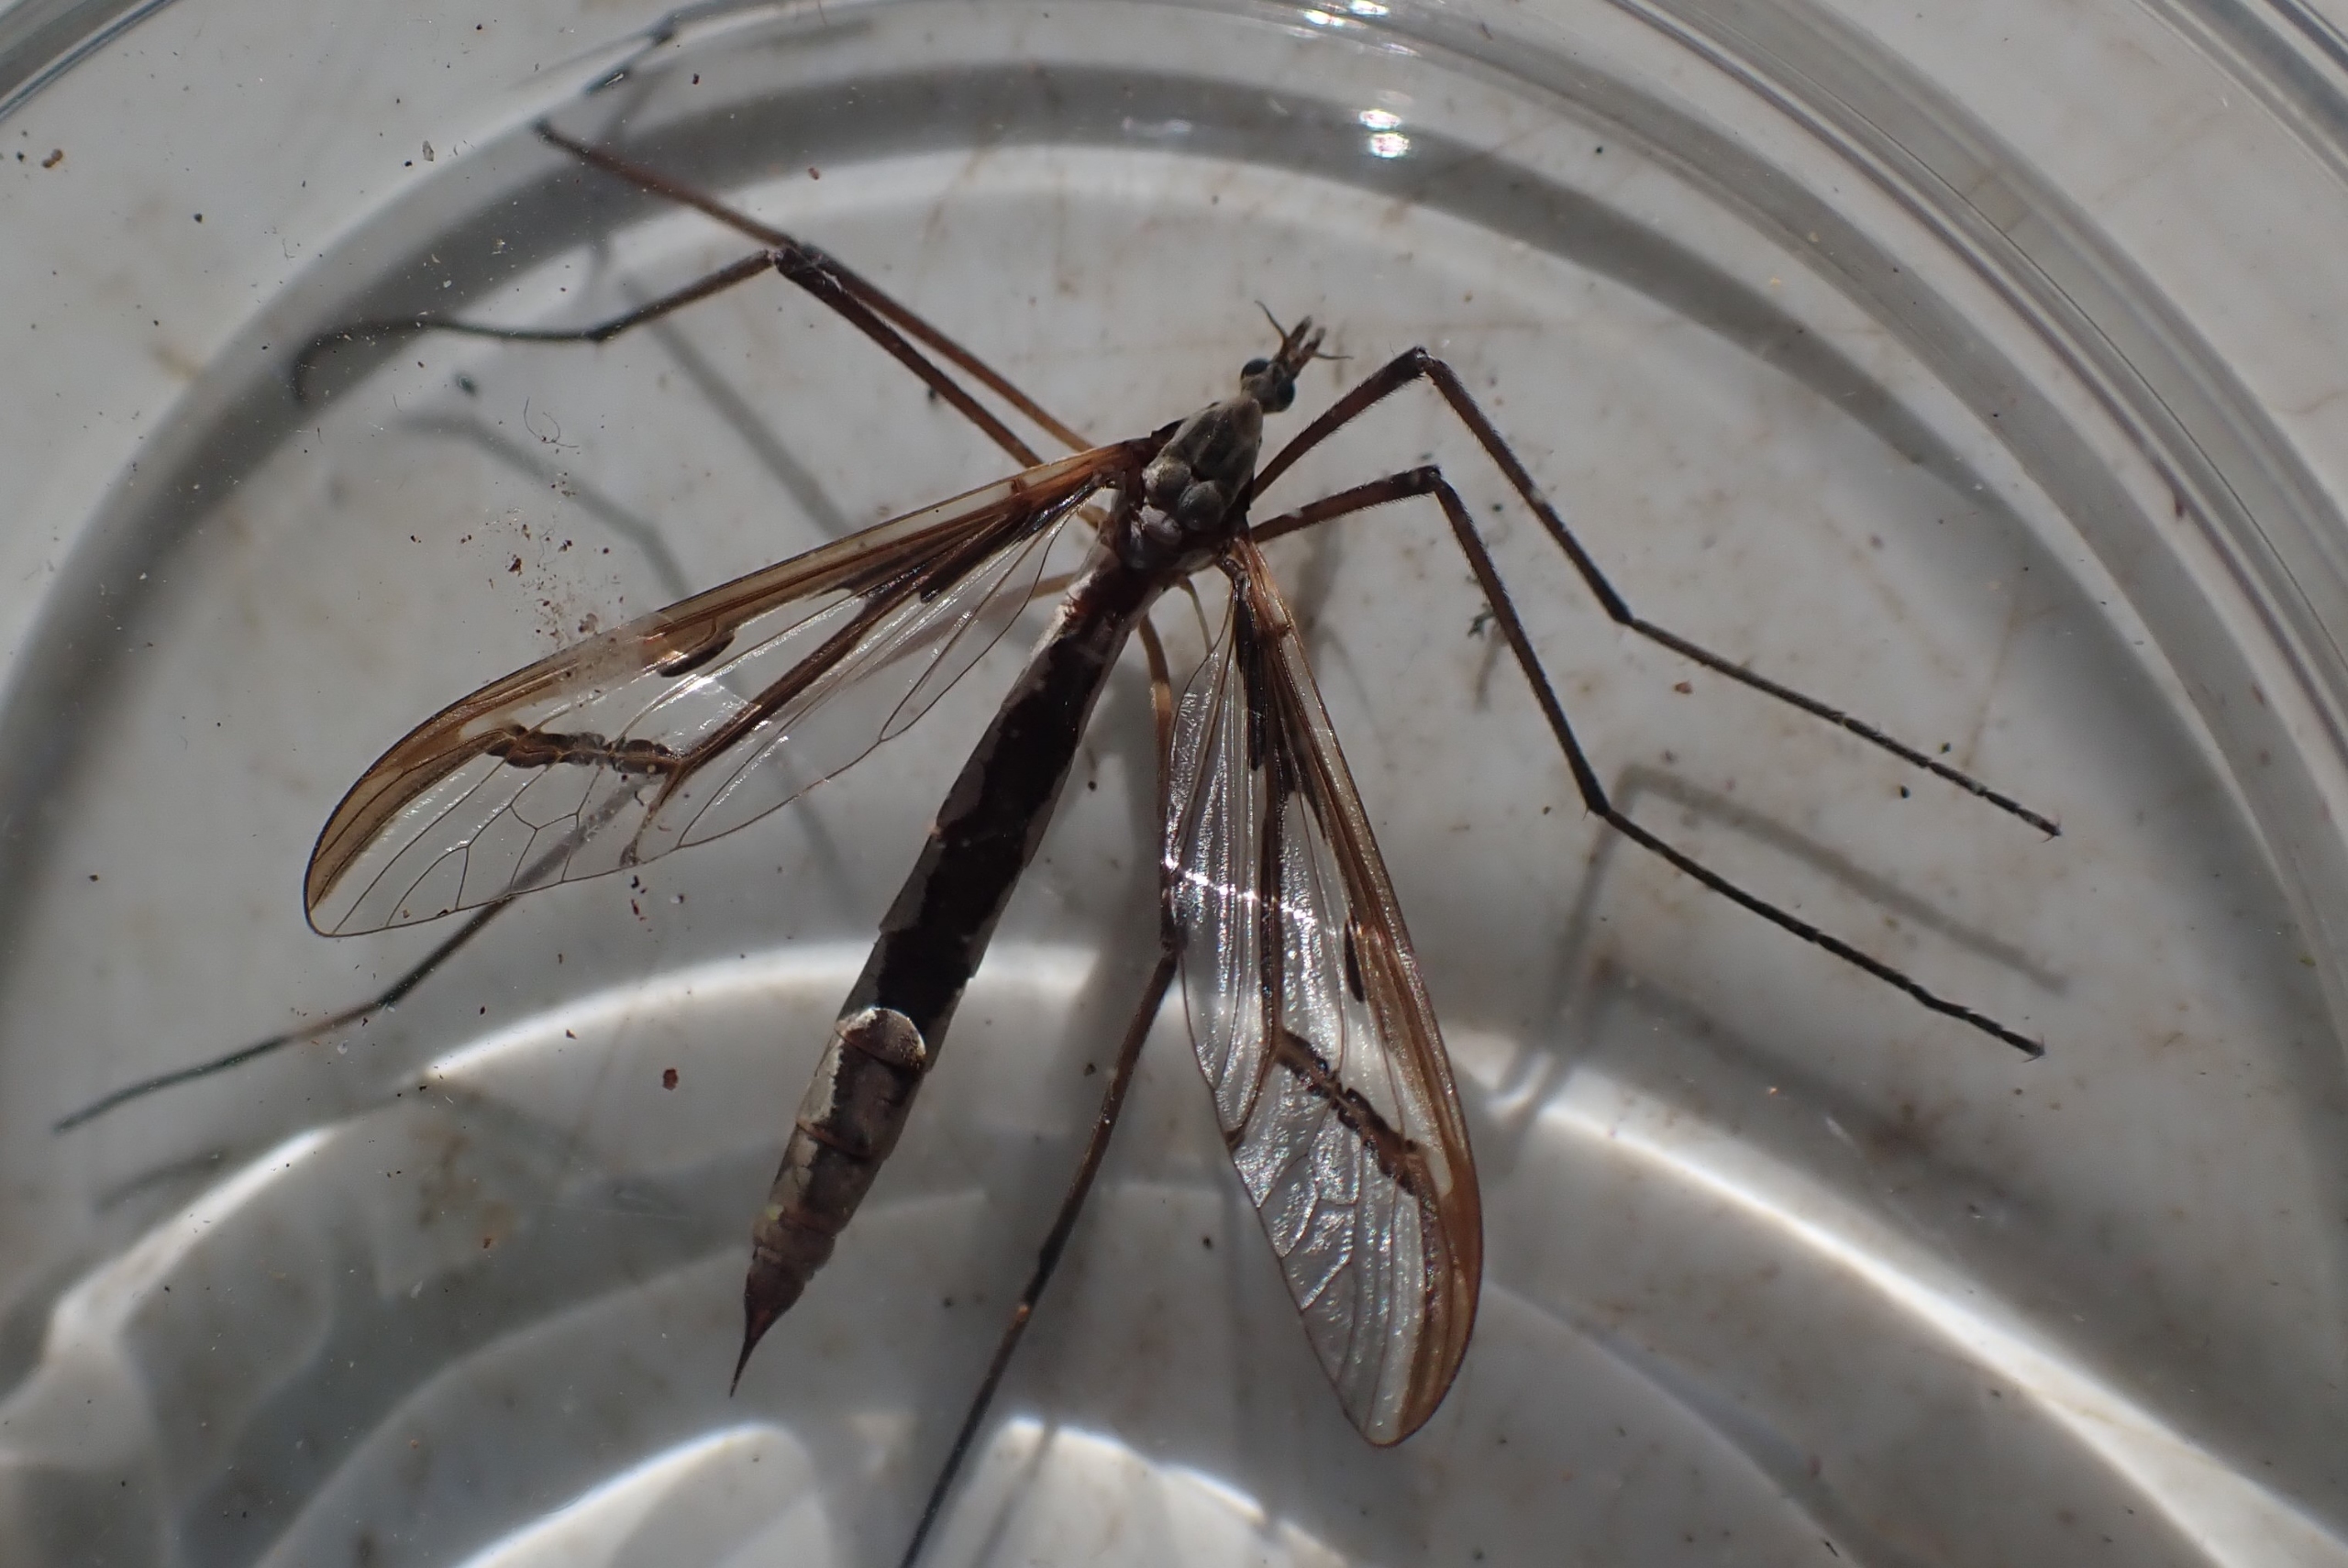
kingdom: Animalia
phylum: Arthropoda
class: Insecta
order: Diptera
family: Pediciidae
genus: Pedicia
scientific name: Pedicia rivosa
